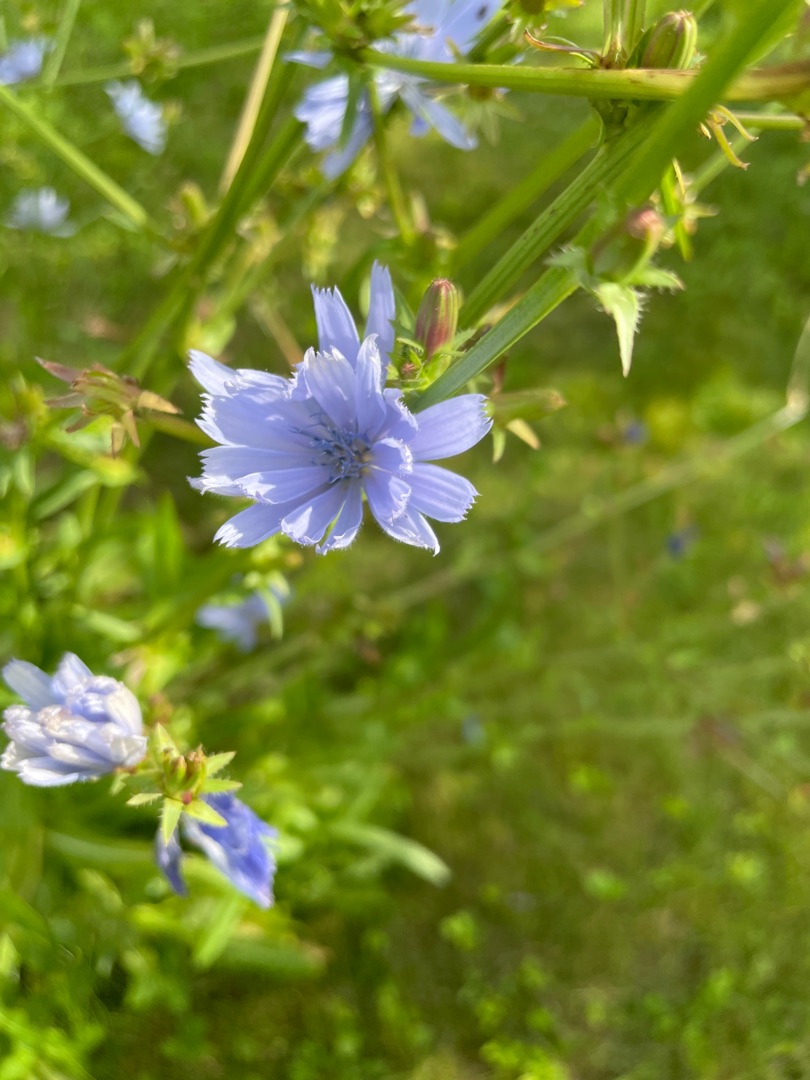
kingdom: Plantae
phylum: Tracheophyta
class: Magnoliopsida
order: Asterales
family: Asteraceae
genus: Cichorium
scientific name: Cichorium intybus
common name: Cikorie
